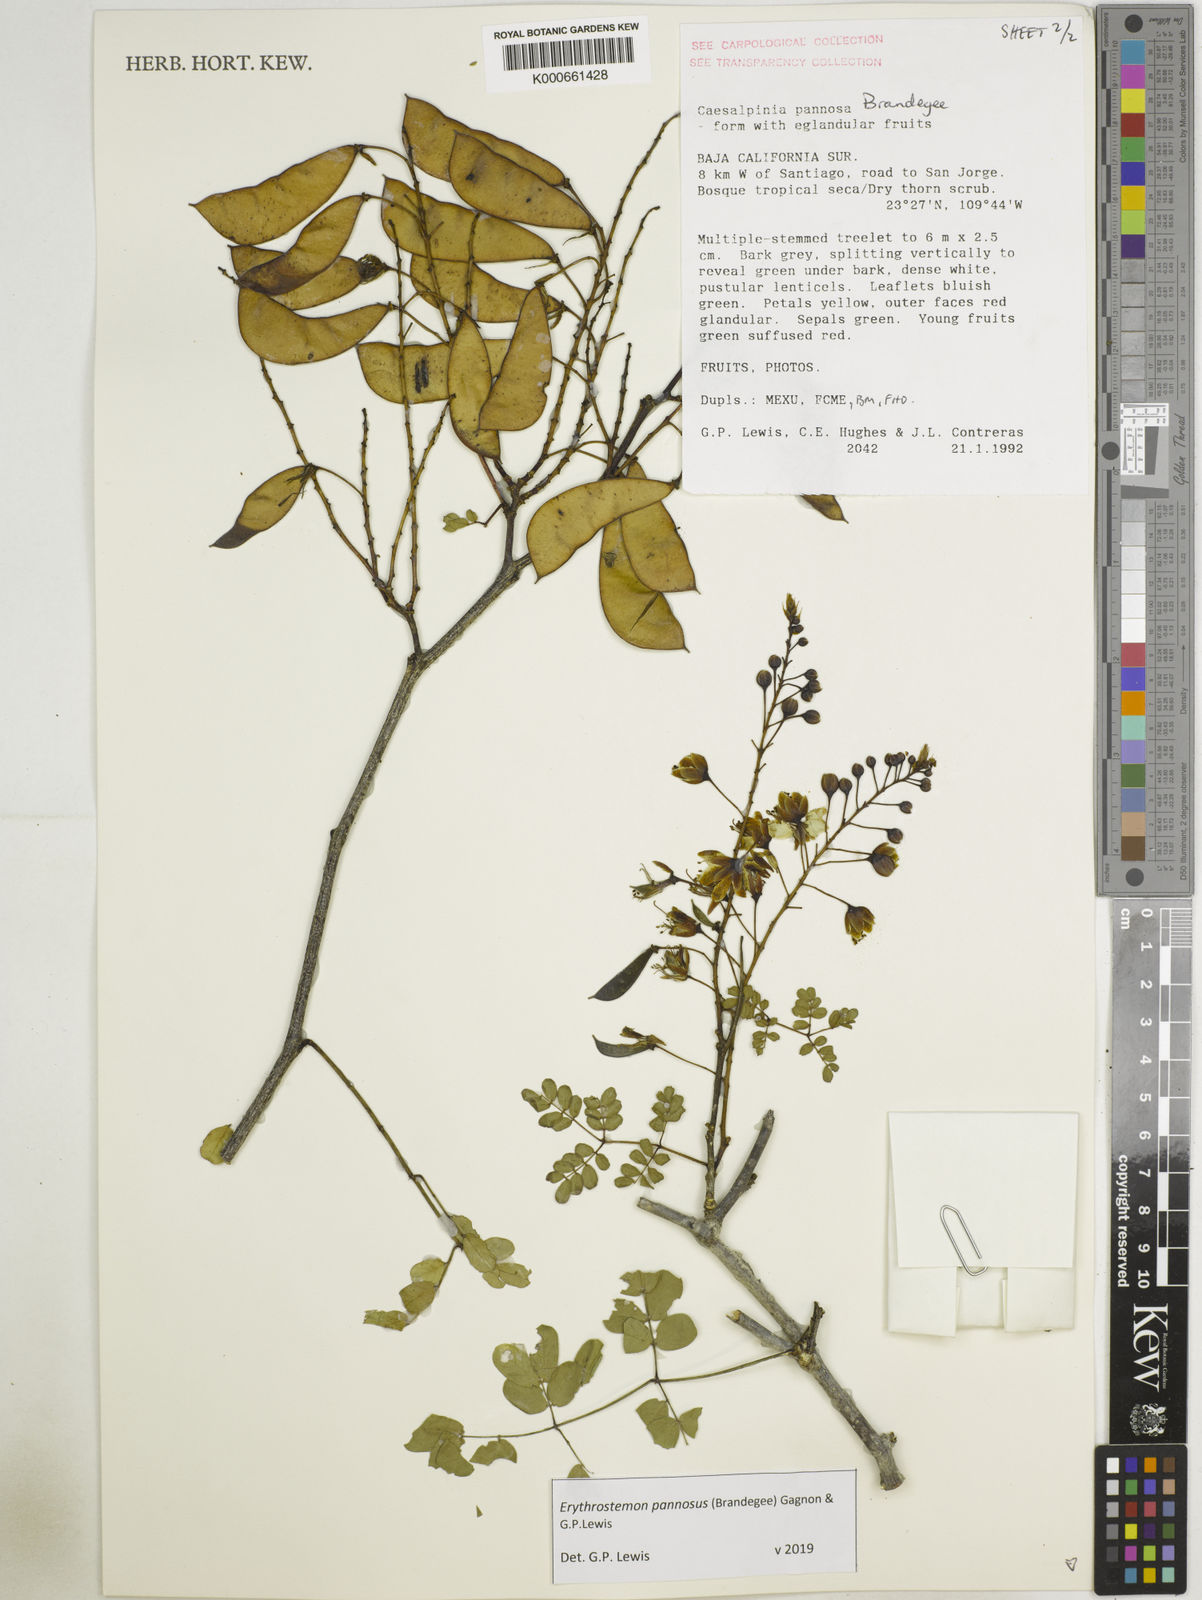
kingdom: Plantae
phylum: Tracheophyta
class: Magnoliopsida
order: Fabales
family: Fabaceae
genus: Erythrostemon
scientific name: Erythrostemon pannosus
